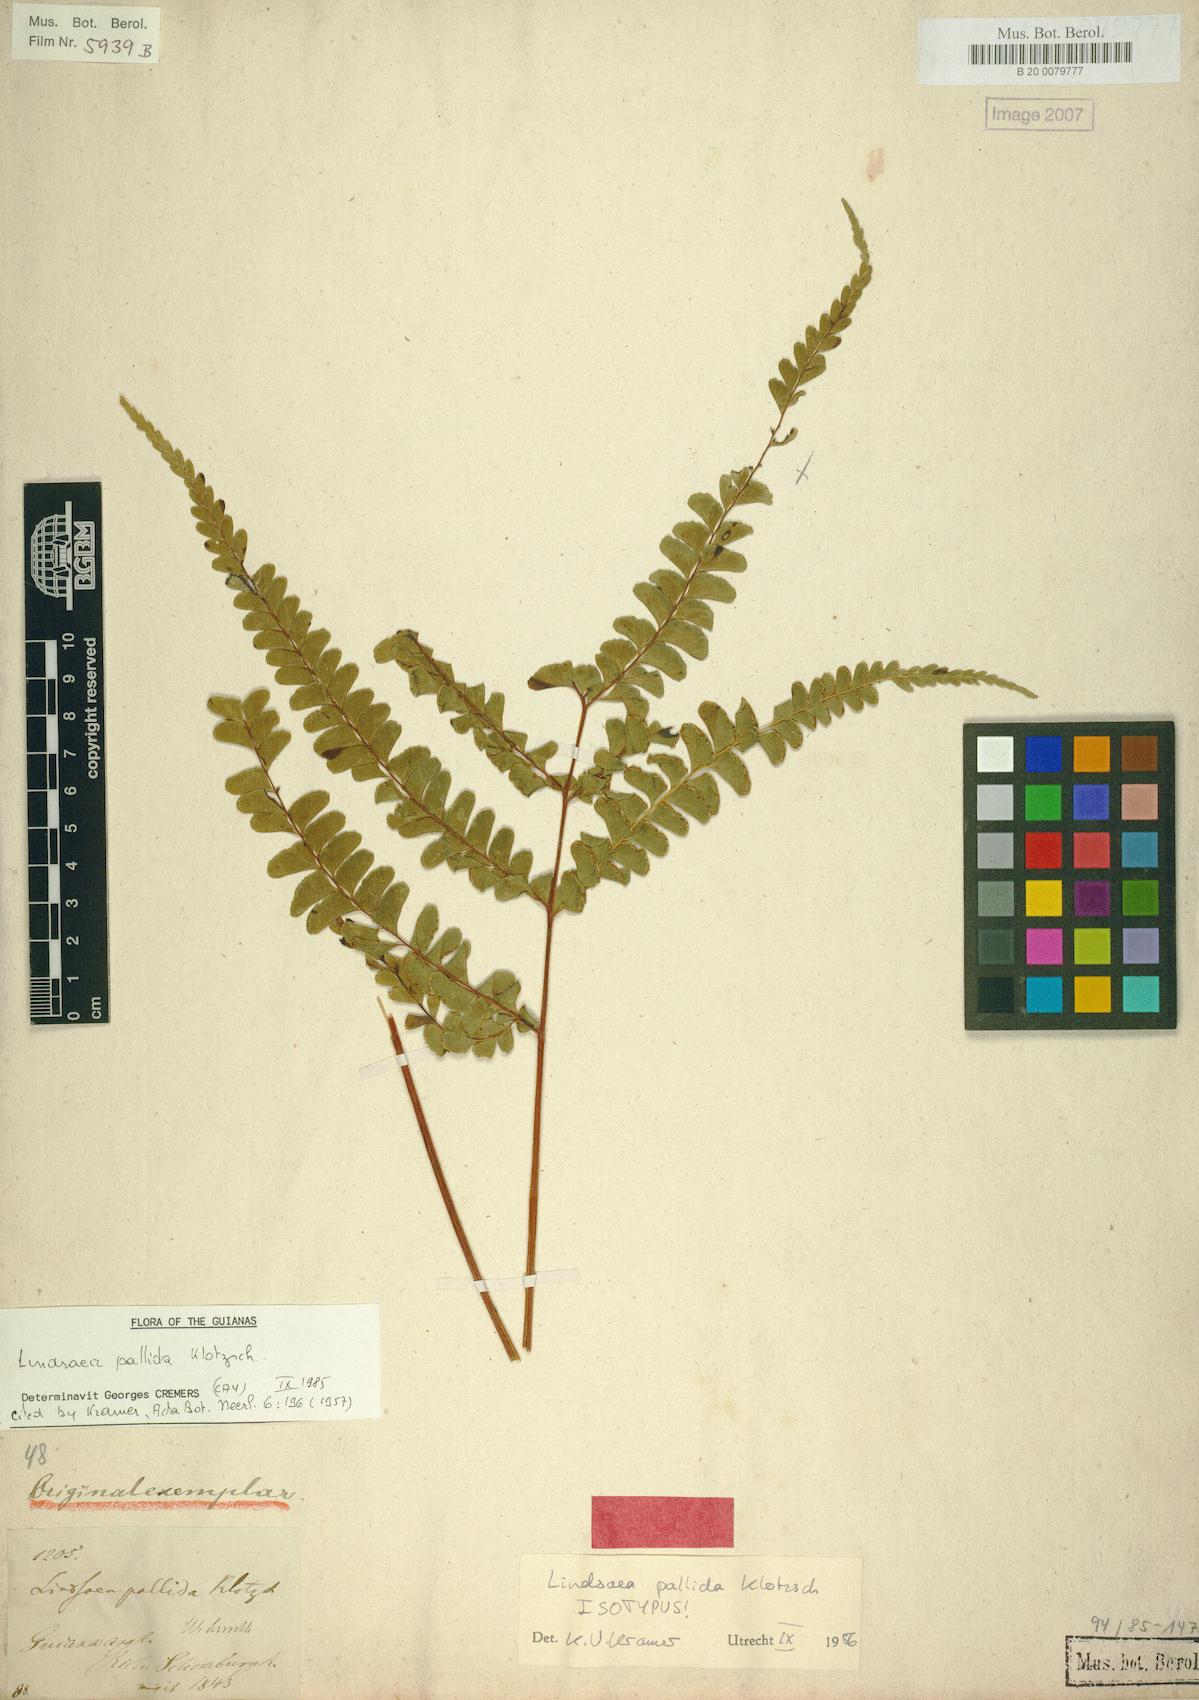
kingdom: Plantae
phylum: Tracheophyta
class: Polypodiopsida
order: Polypodiales
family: Lindsaeaceae
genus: Lindsaea
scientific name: Lindsaea pallida
